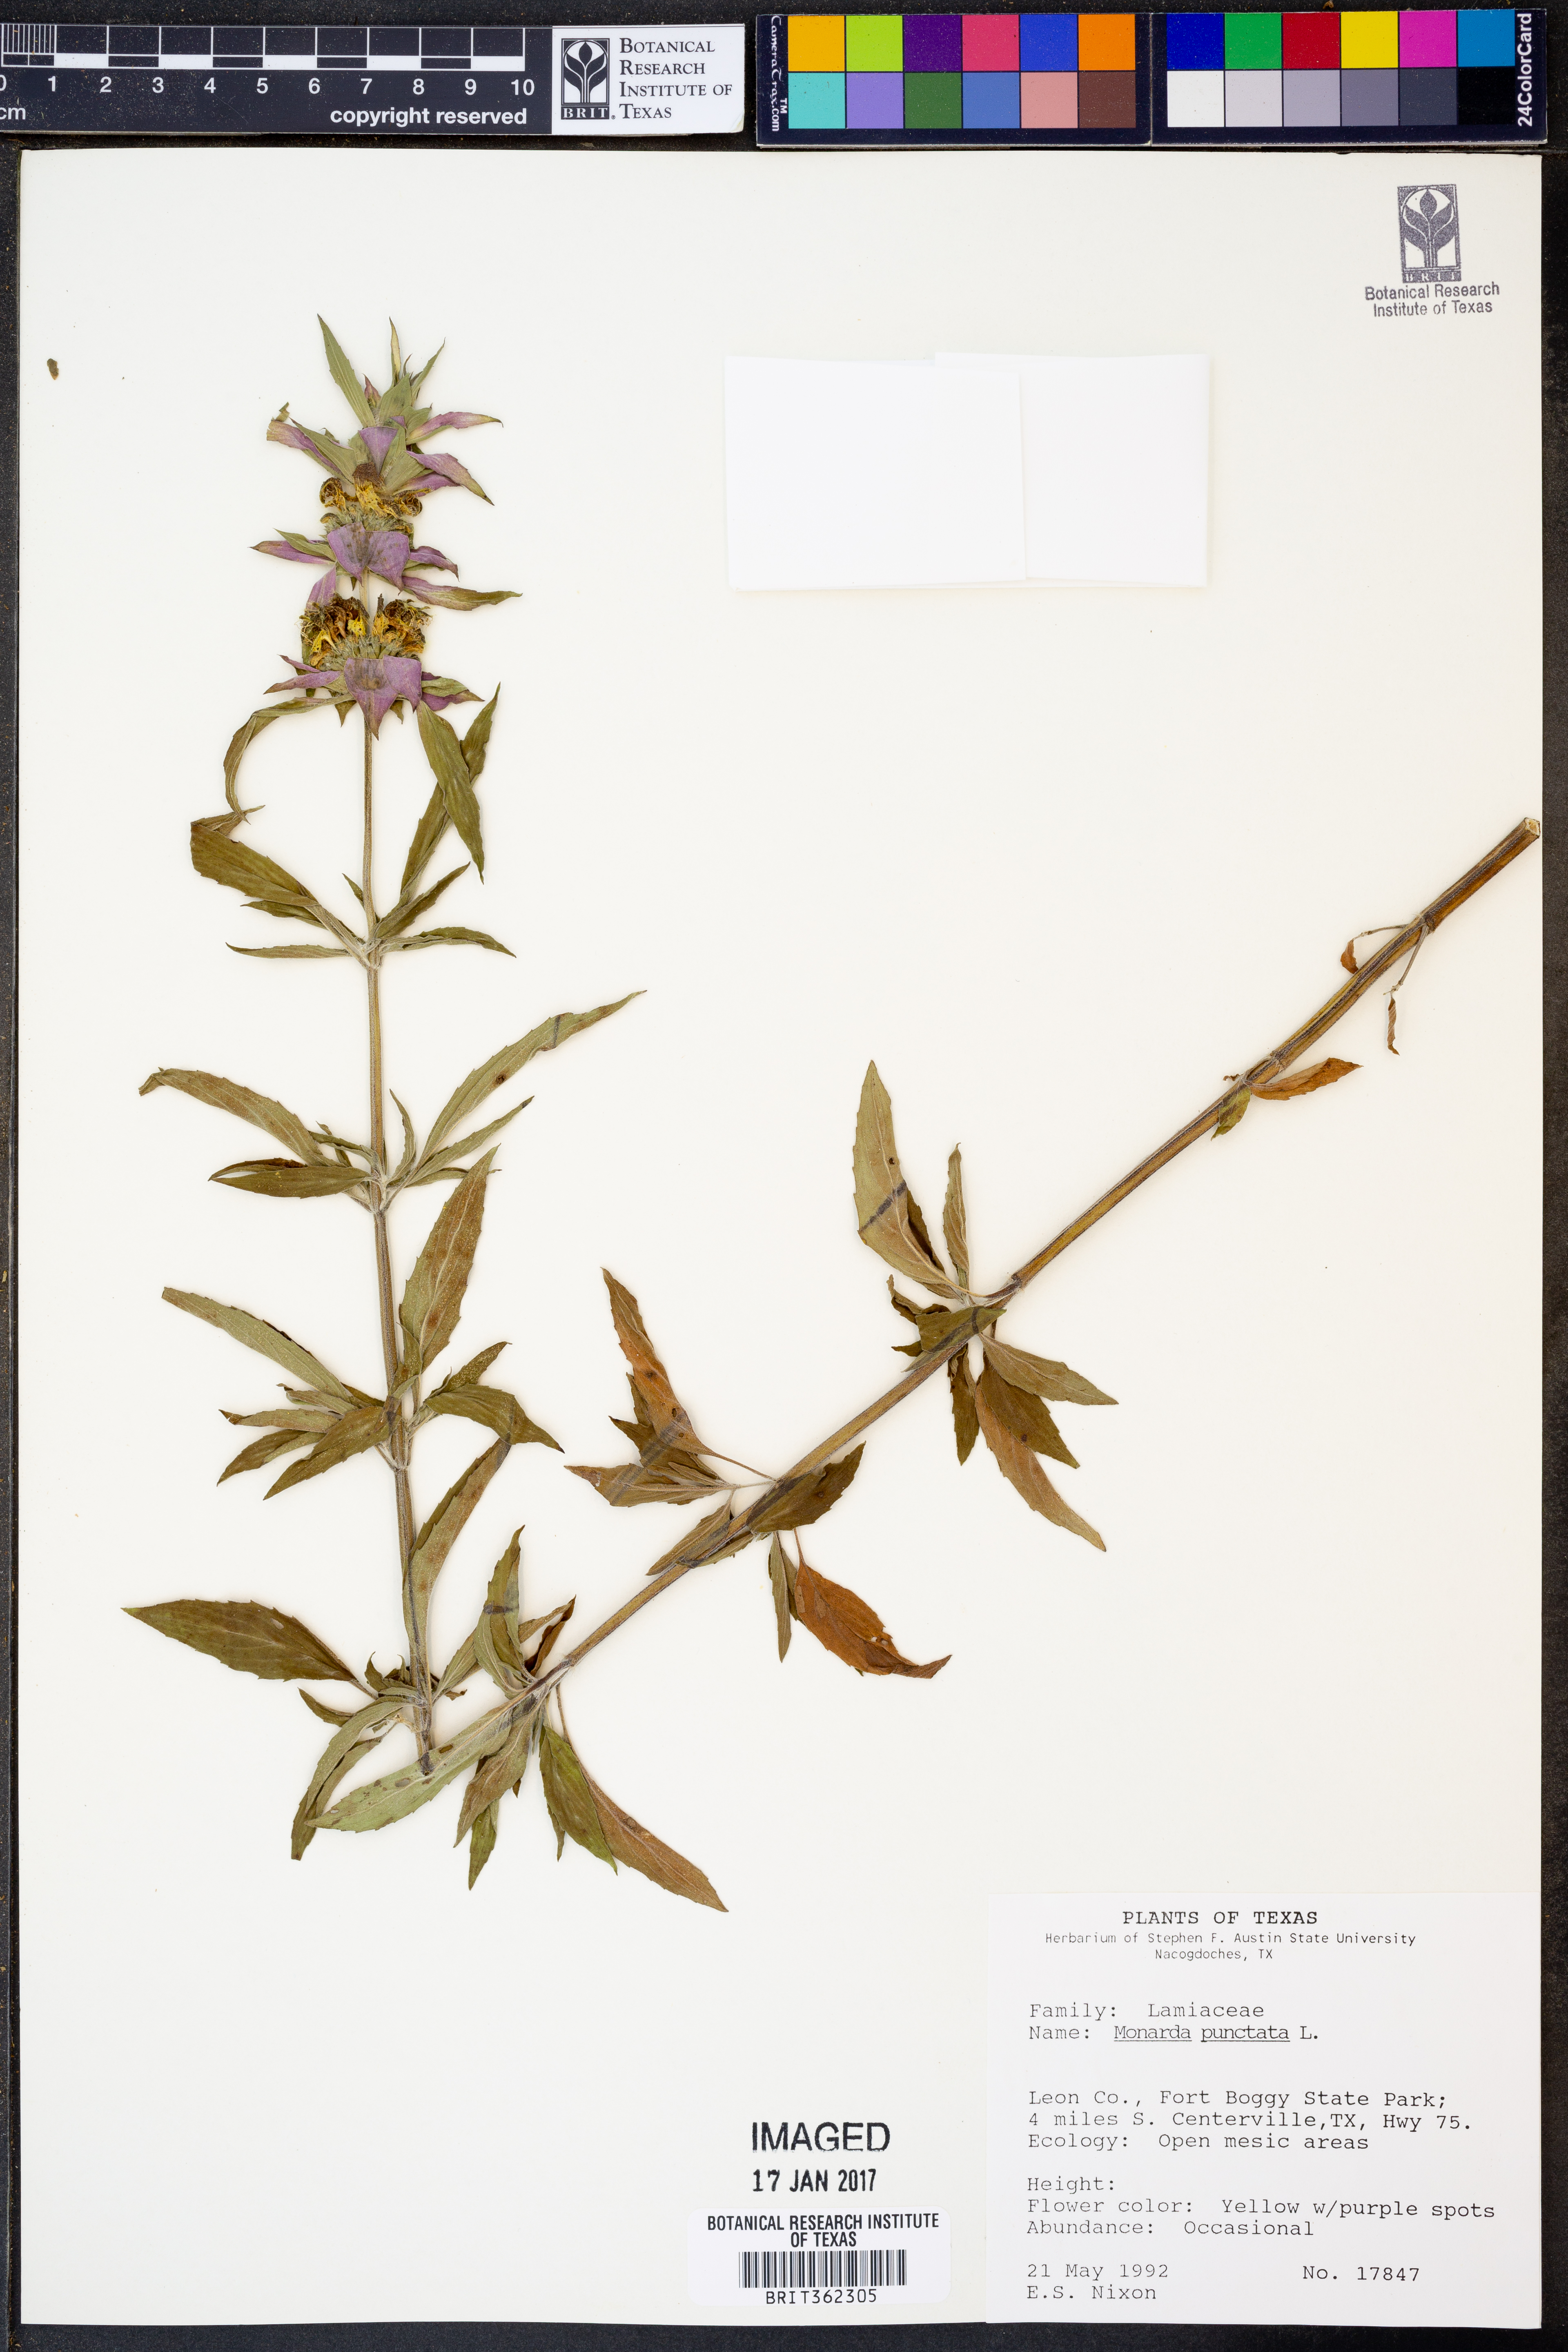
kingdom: Plantae
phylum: Tracheophyta
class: Magnoliopsida
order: Lamiales
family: Lamiaceae
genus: Monarda
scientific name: Monarda punctata
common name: Dotted monarda
